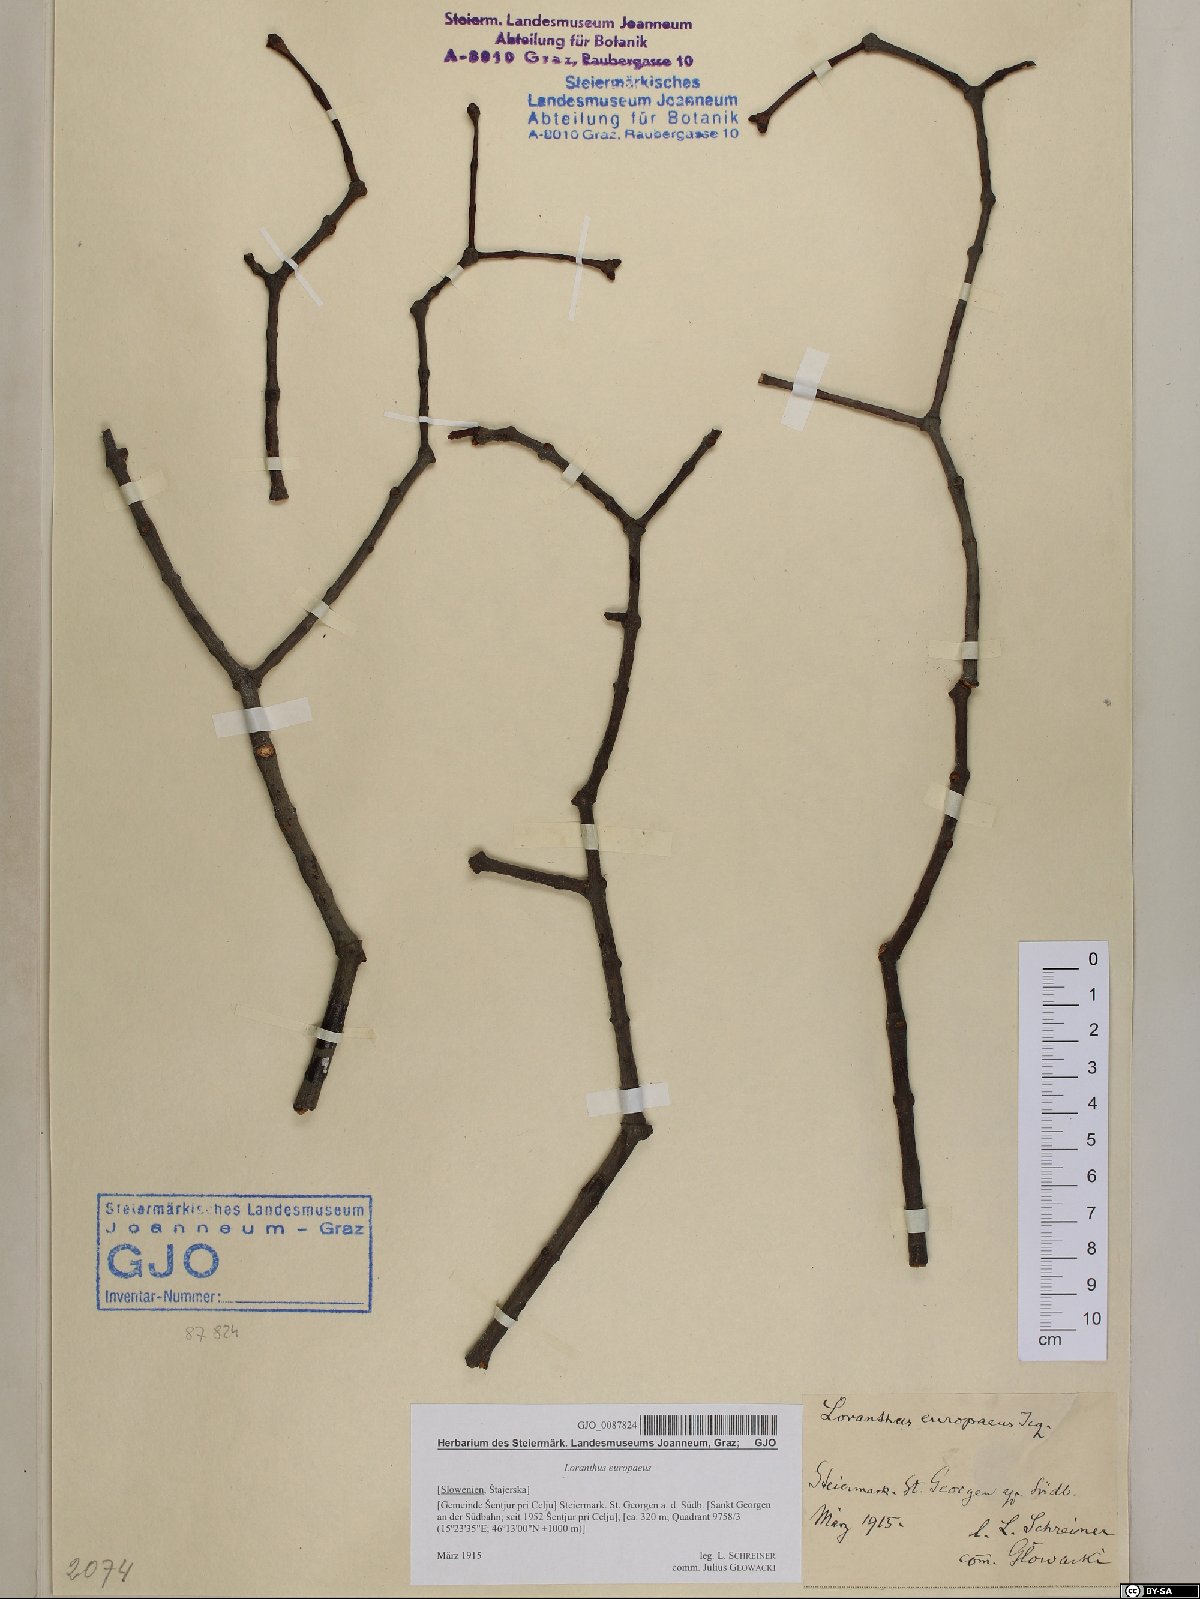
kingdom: Plantae
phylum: Tracheophyta
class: Magnoliopsida
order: Santalales
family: Loranthaceae
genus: Loranthus
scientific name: Loranthus europaeus
